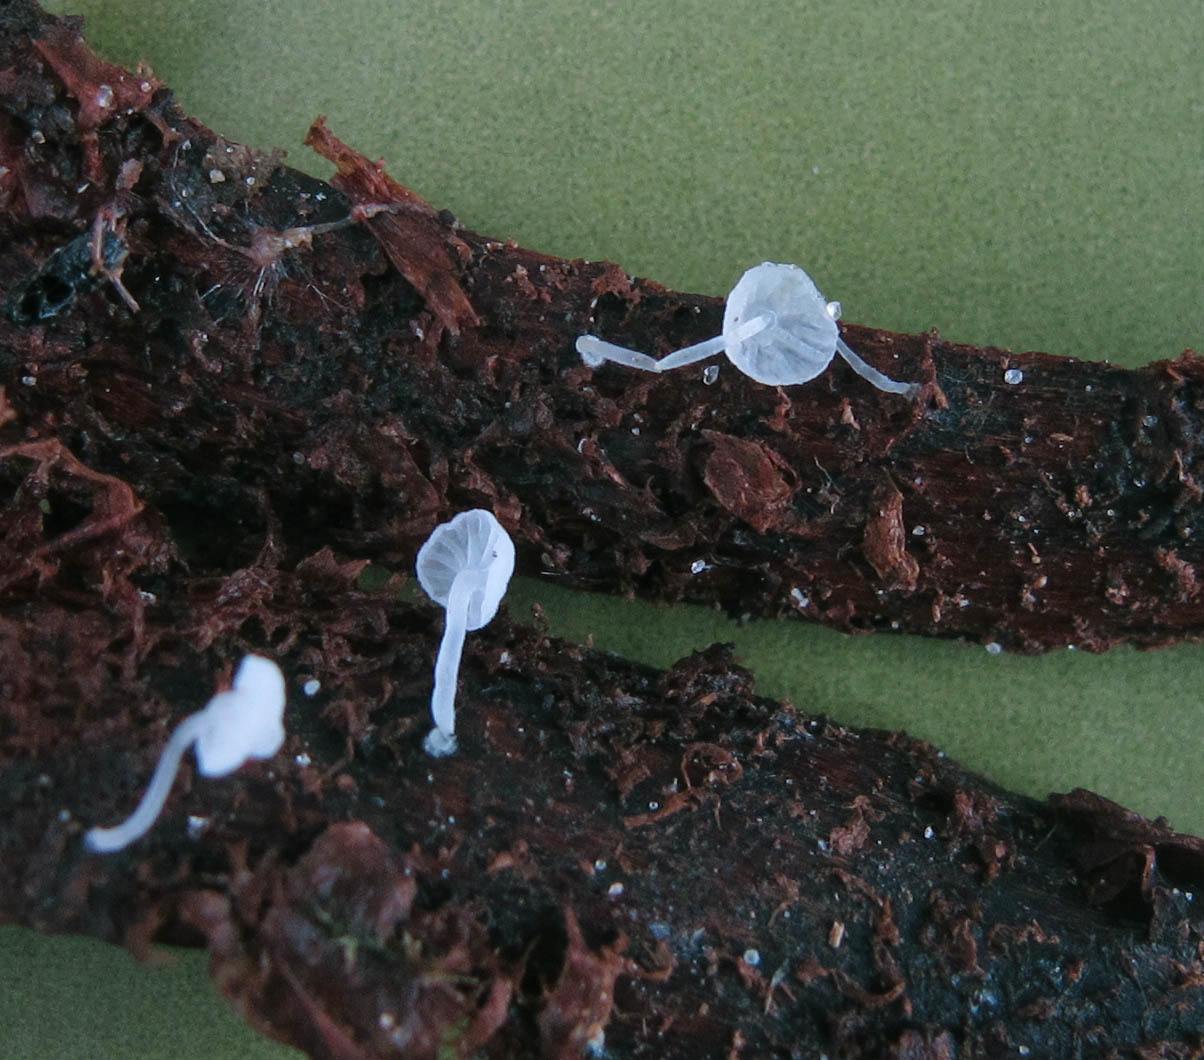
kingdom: Fungi
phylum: Basidiomycota
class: Agaricomycetes
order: Agaricales
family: Mycenaceae
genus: Hemimycena
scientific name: Hemimycena gypsella
